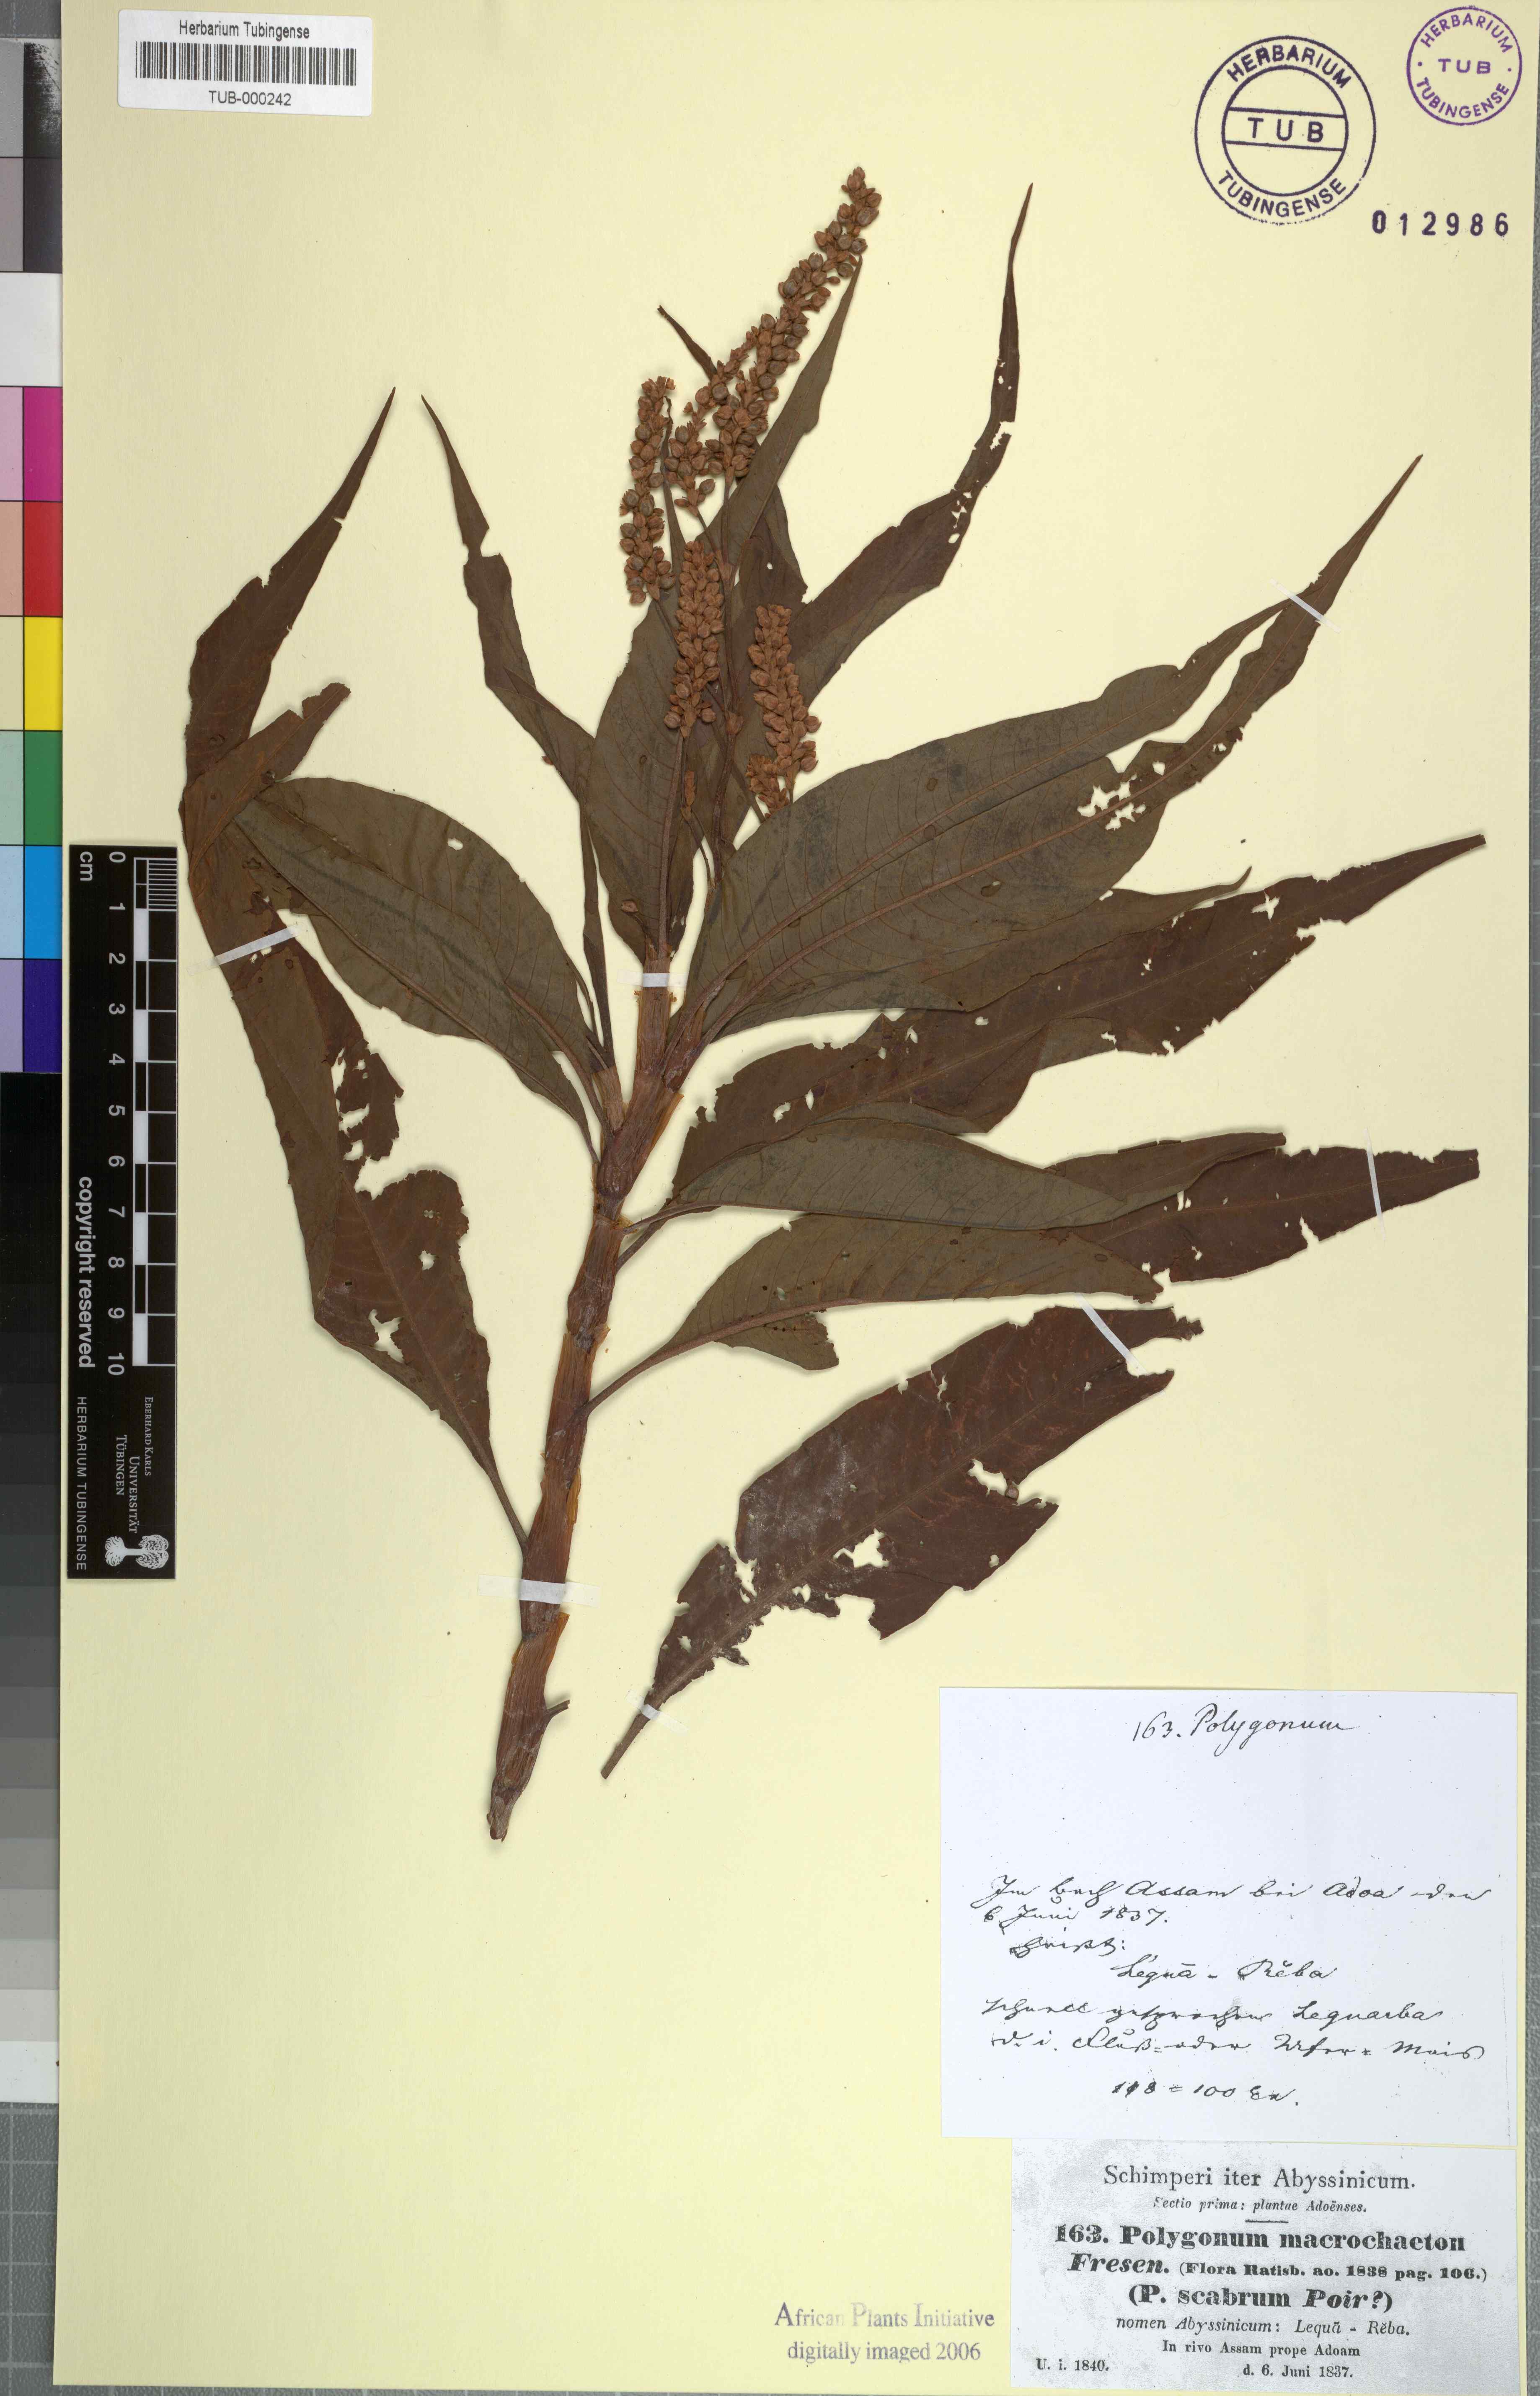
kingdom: Plantae
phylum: Tracheophyta
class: Magnoliopsida
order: Caryophyllales
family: Polygonaceae
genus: Persicaria
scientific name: Persicaria senegalensis
